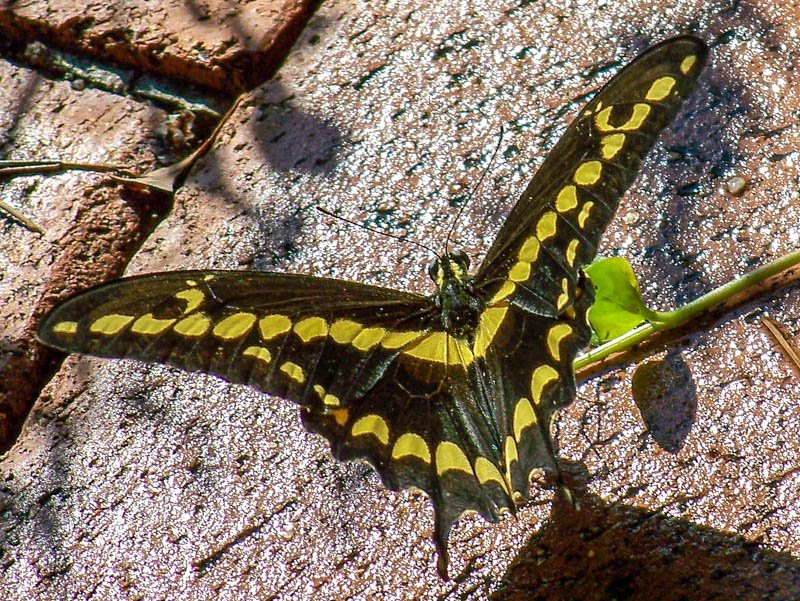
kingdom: Animalia
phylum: Arthropoda
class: Insecta
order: Lepidoptera
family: Papilionidae
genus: Papilio
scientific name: Papilio rumiko
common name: Western Giant Swallowtail
